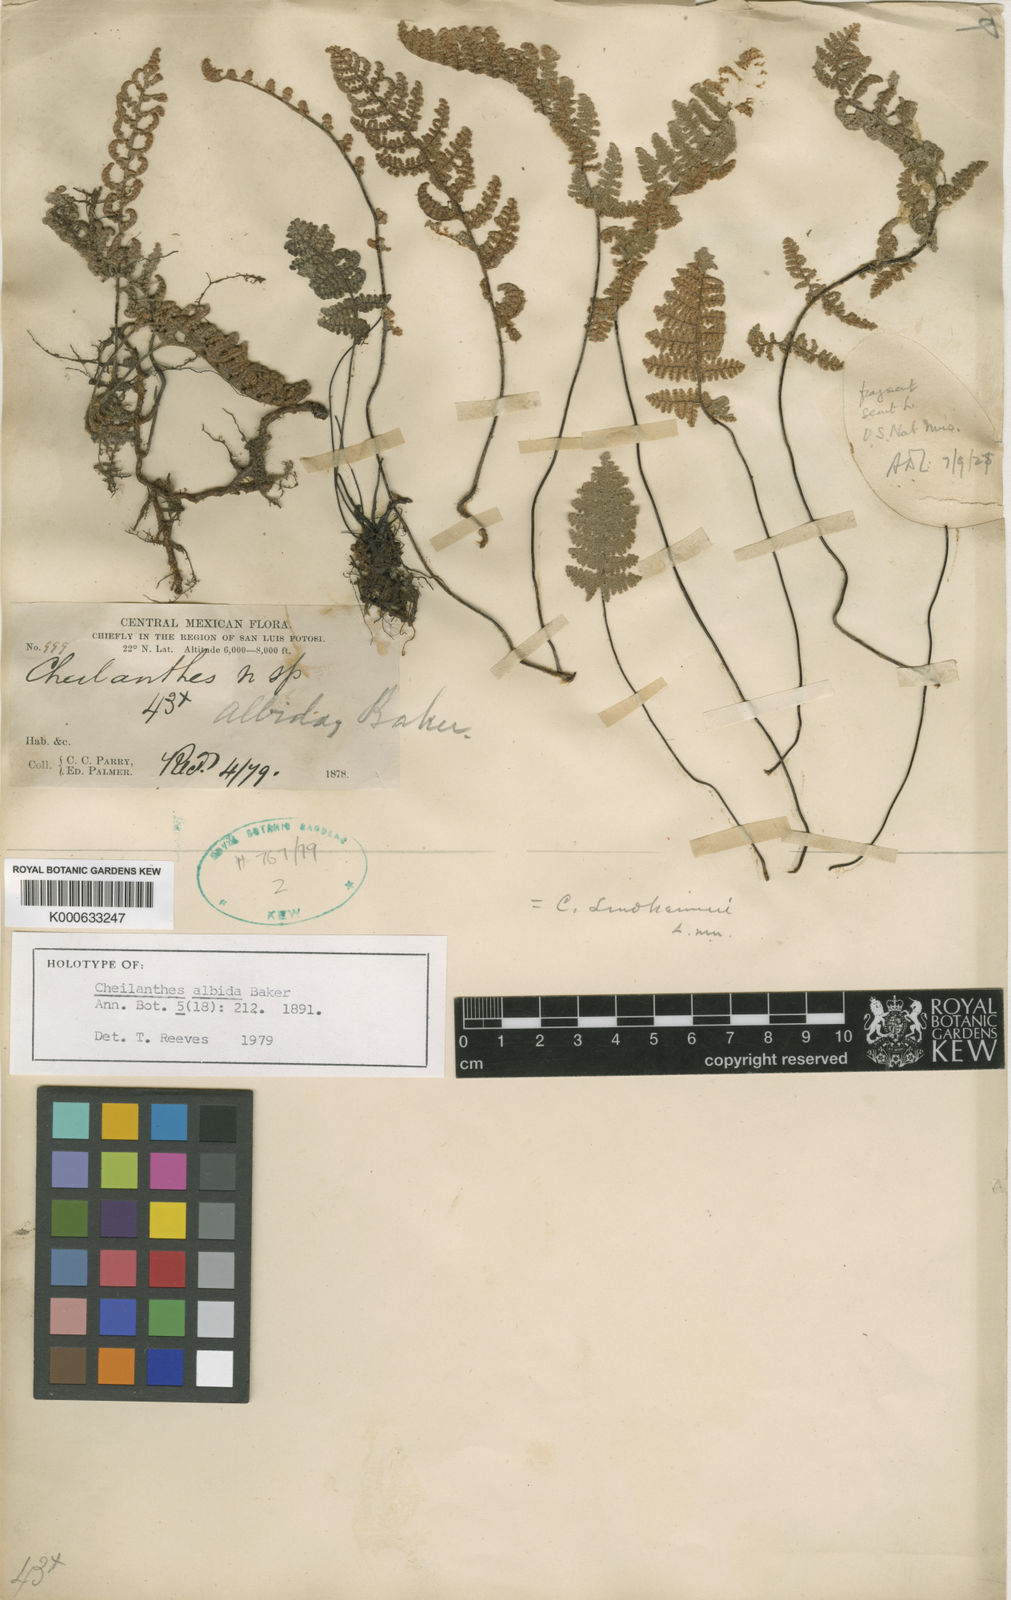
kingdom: Plantae
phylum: Tracheophyta
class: Polypodiopsida
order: Polypodiales
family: Pteridaceae
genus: Myriopteris
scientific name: Myriopteris lindheimeri
